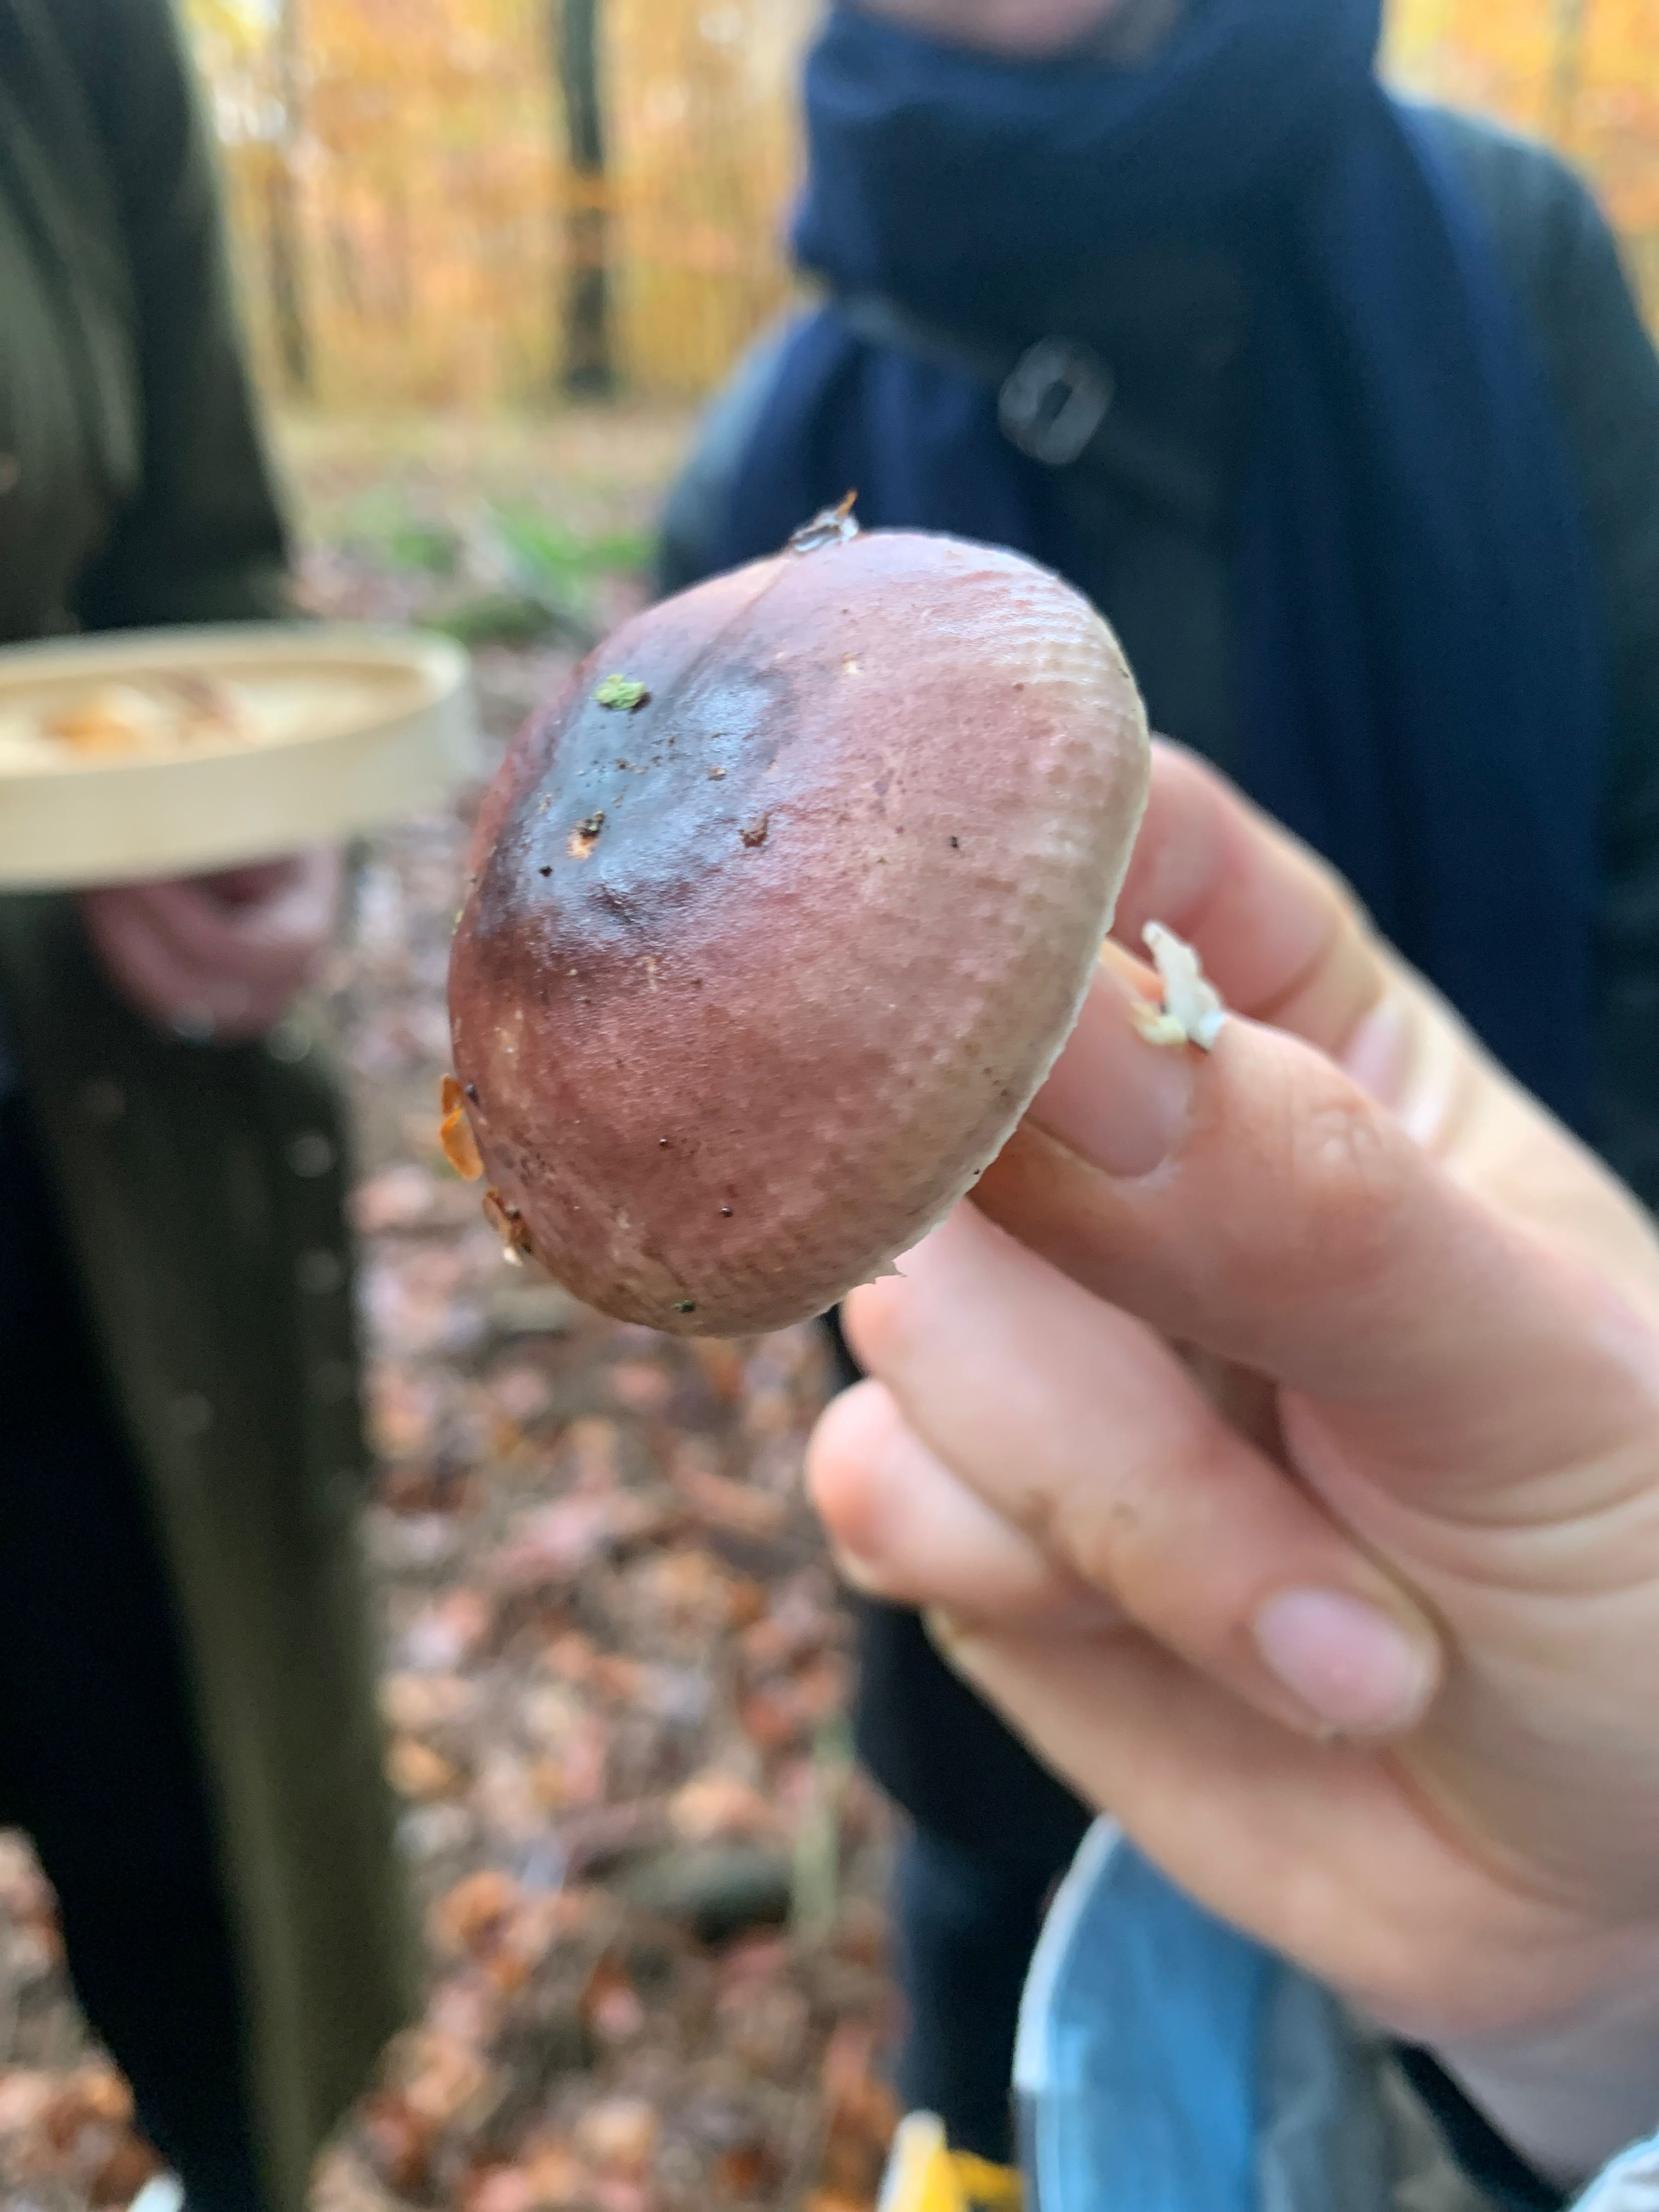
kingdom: Fungi
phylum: Basidiomycota
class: Agaricomycetes
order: Russulales
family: Russulaceae
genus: Russula
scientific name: Russula
